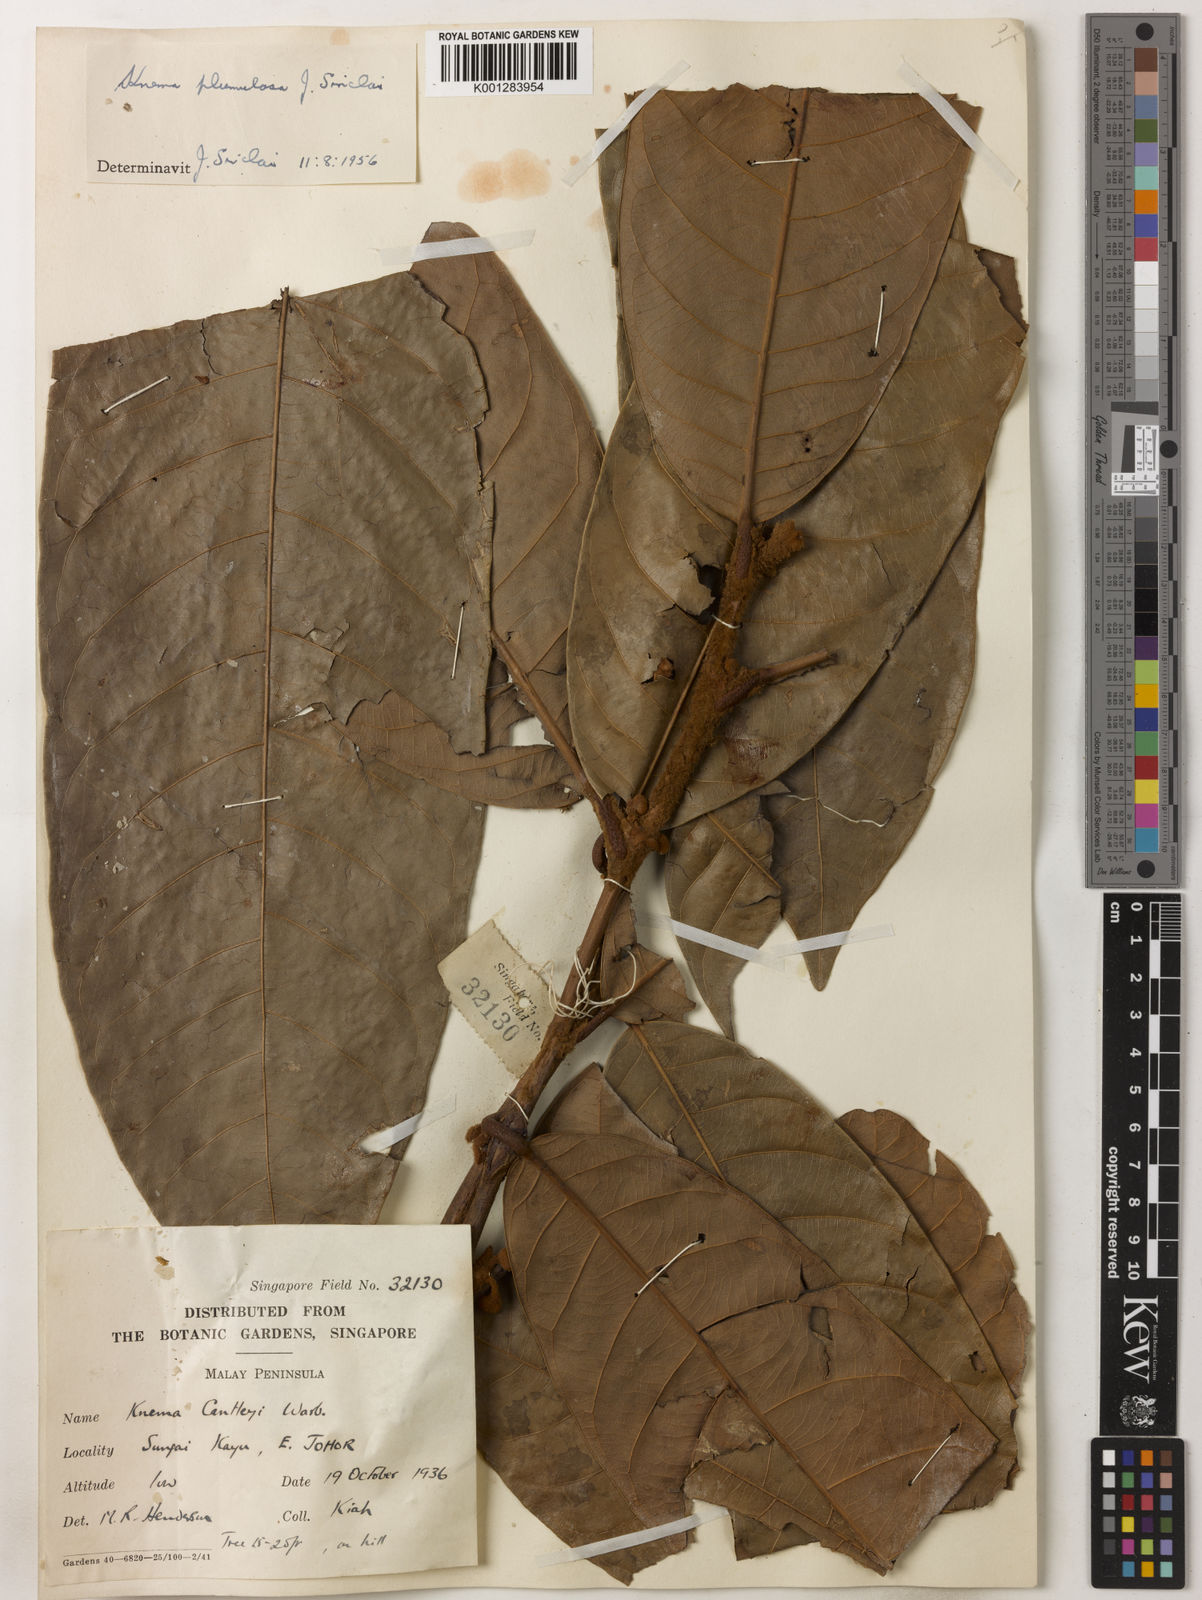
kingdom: Plantae
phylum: Tracheophyta
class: Magnoliopsida
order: Magnoliales
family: Myristicaceae
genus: Knema
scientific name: Knema plumulosa
